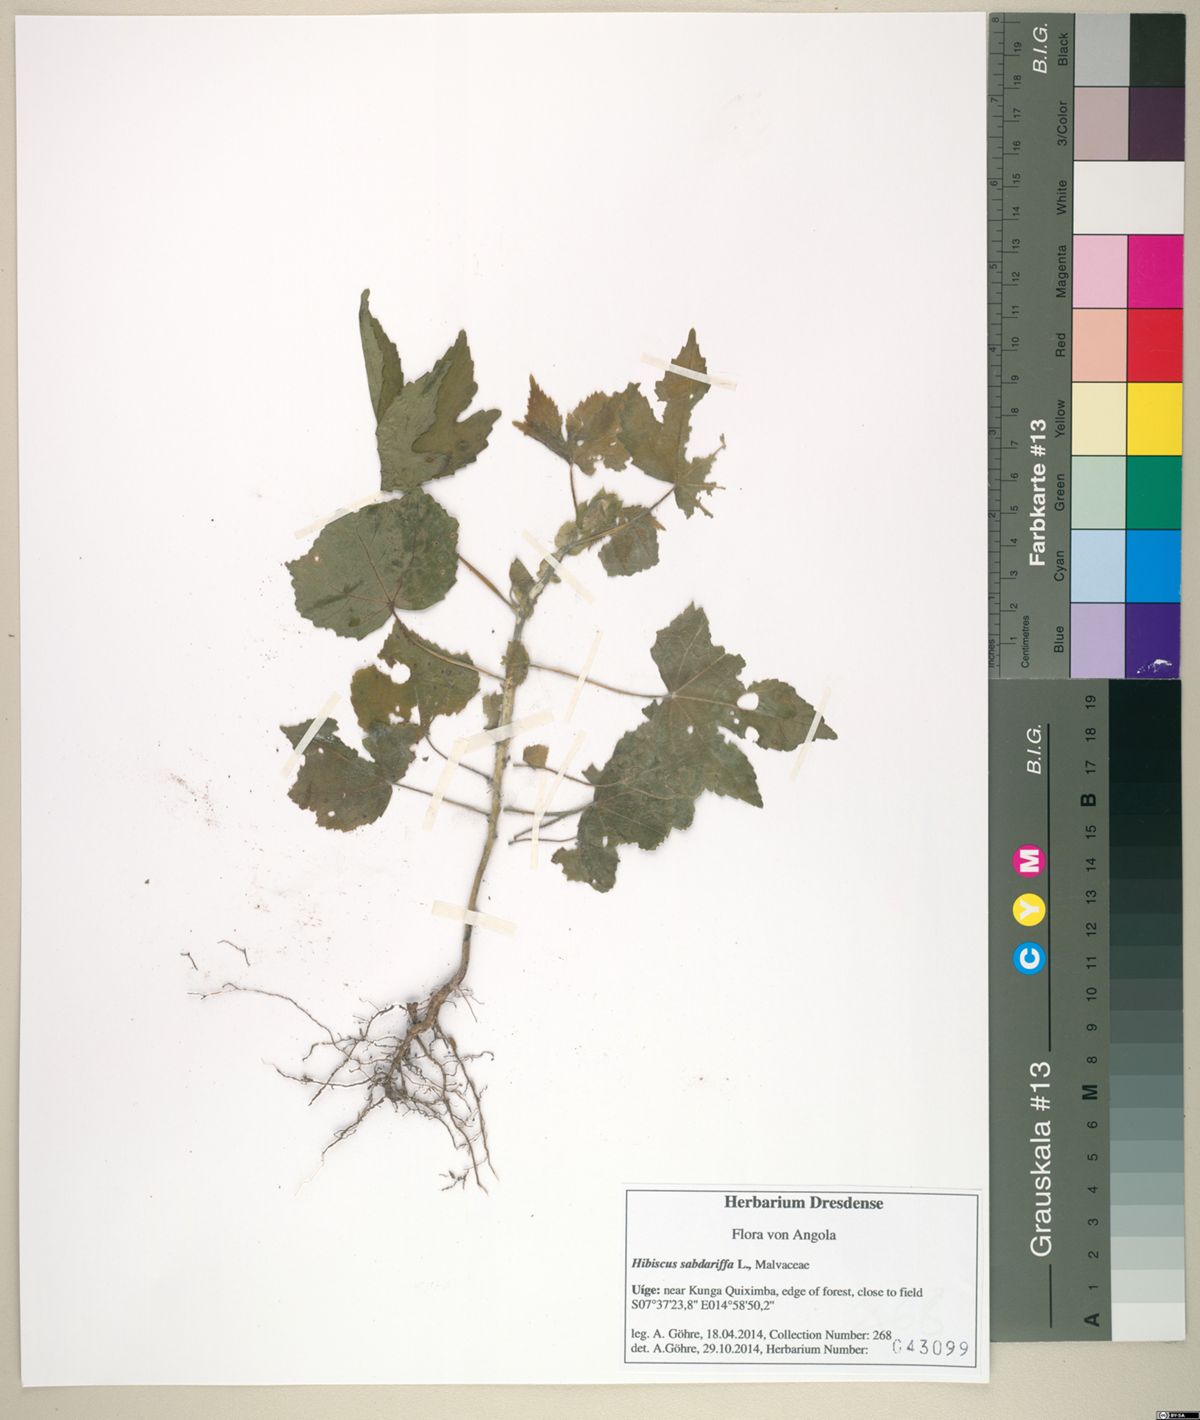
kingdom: Plantae
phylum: Tracheophyta
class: Magnoliopsida
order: Malvales
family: Malvaceae
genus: Hibiscus
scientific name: Hibiscus sabdariffa
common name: Roselle
